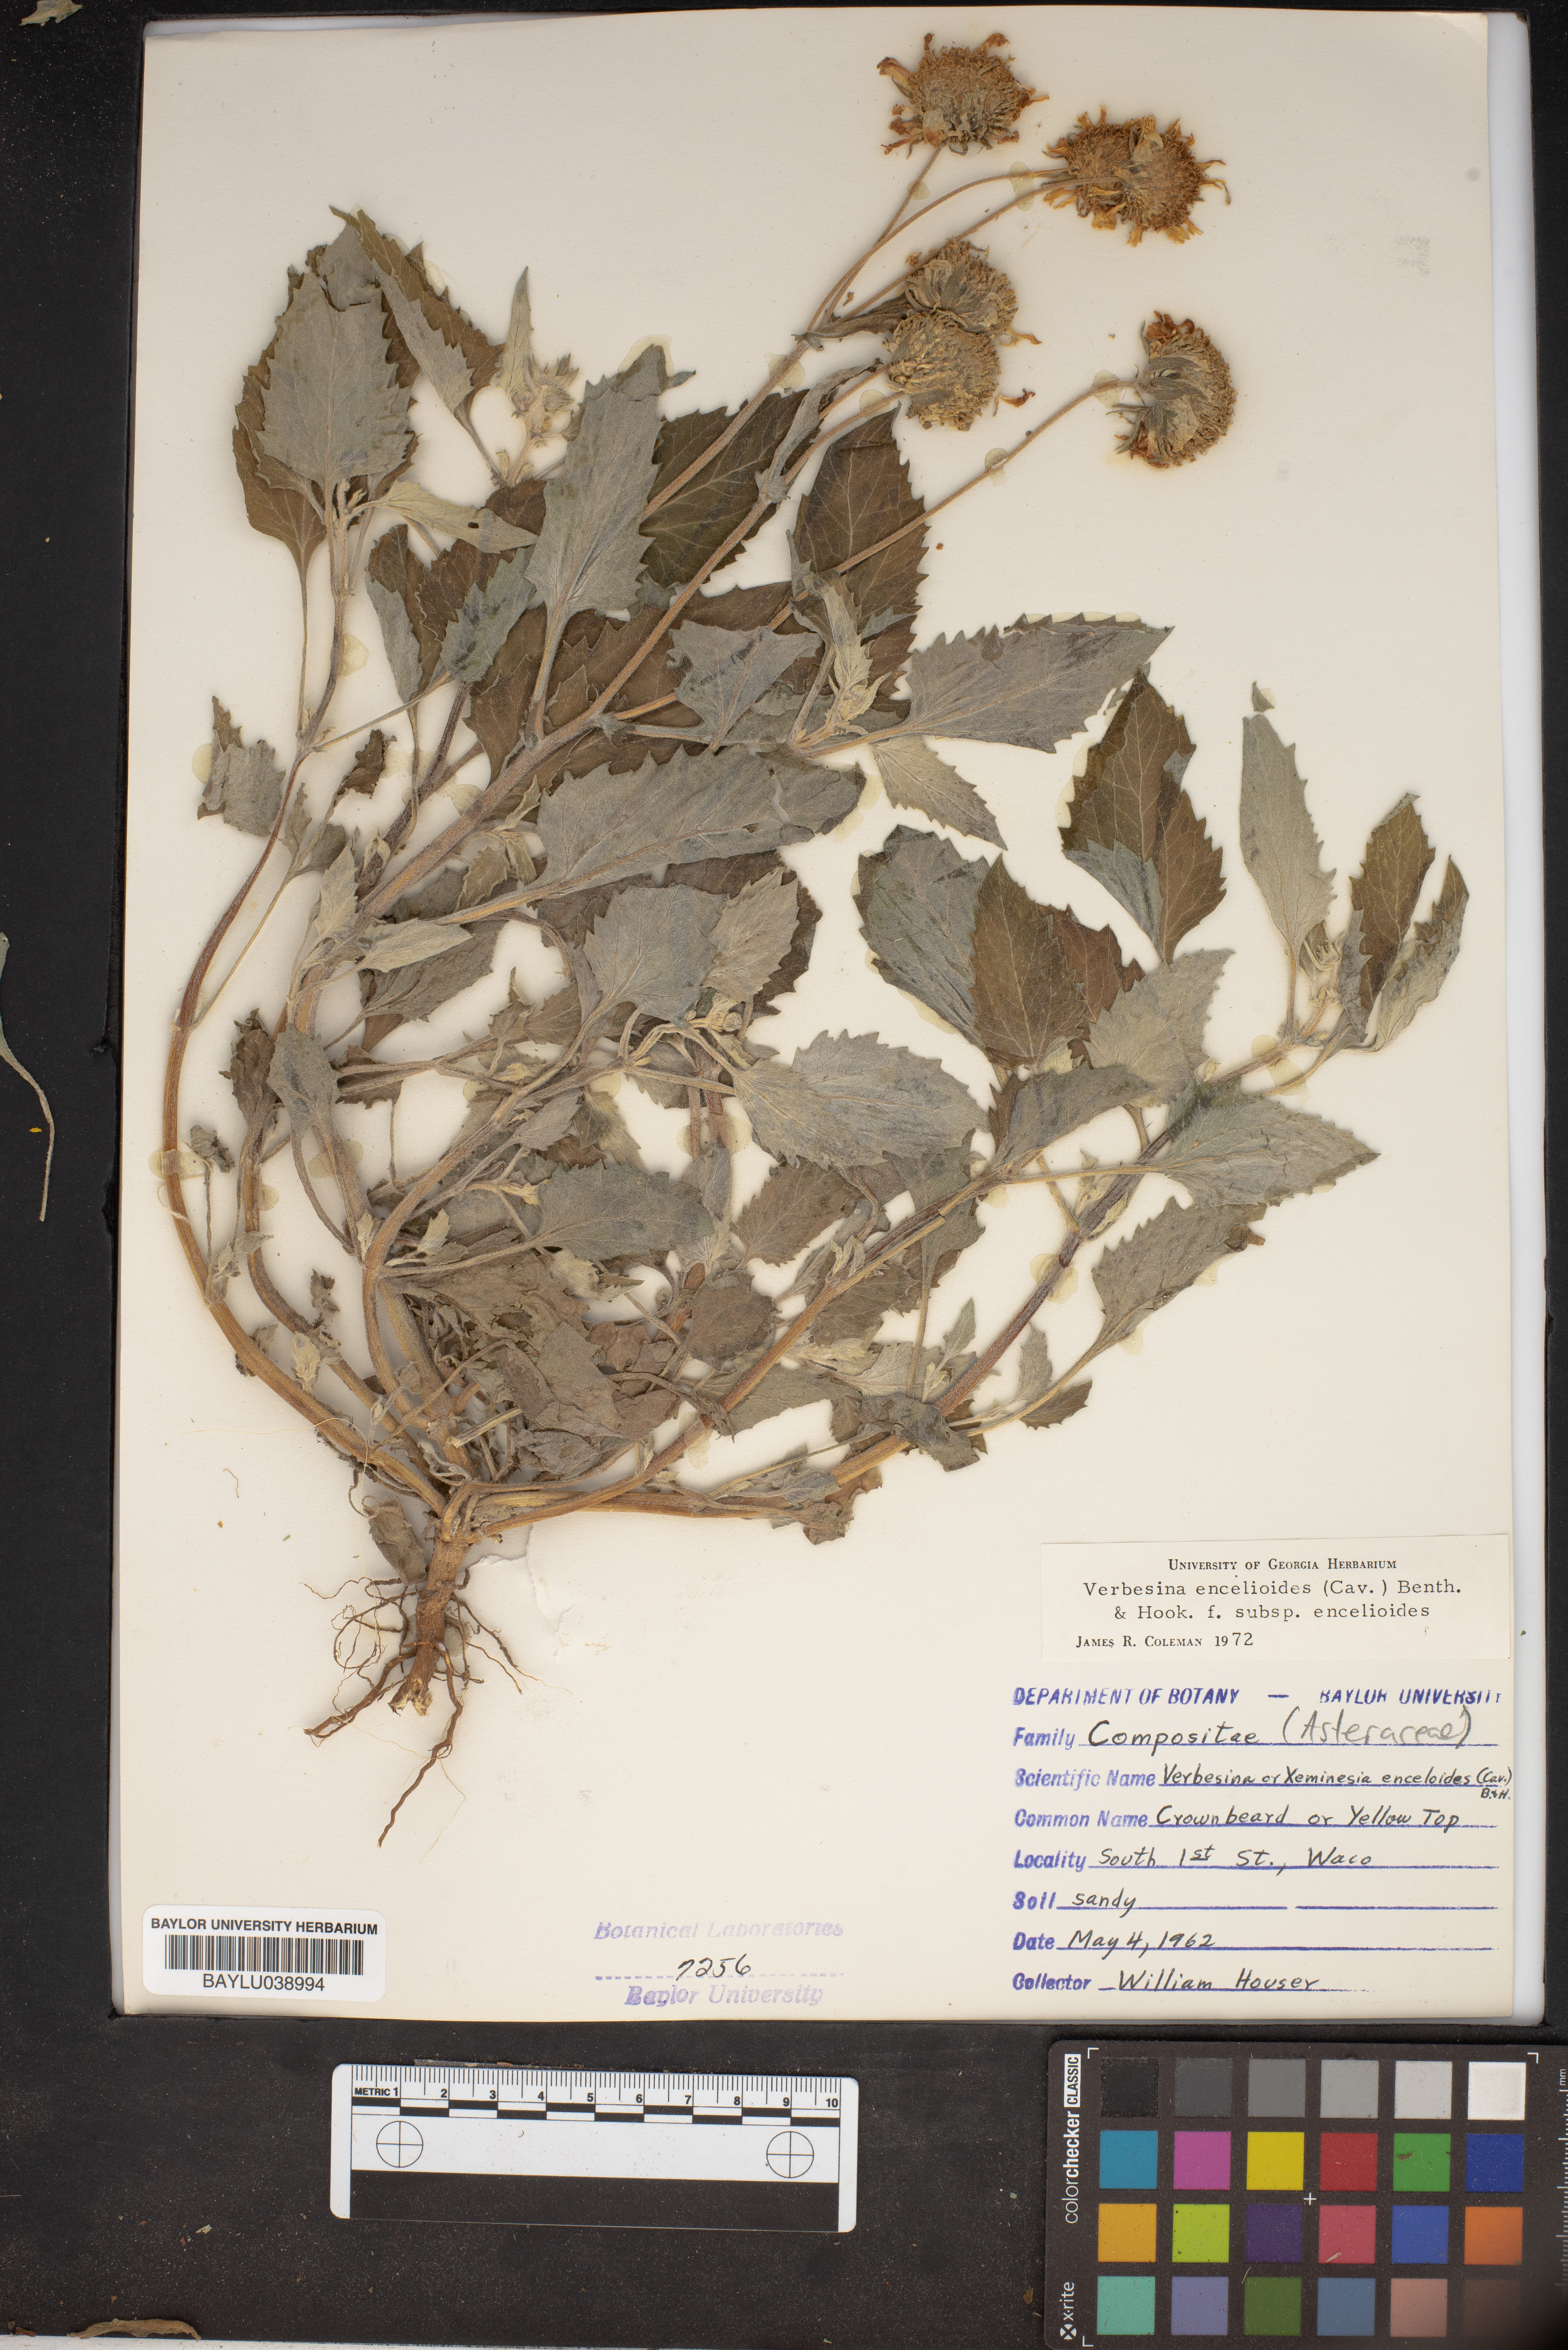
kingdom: Plantae
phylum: Tracheophyta
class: Magnoliopsida
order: Asterales
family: Asteraceae
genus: Verbesina
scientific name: Verbesina encelioides
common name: Golden crownbeard
